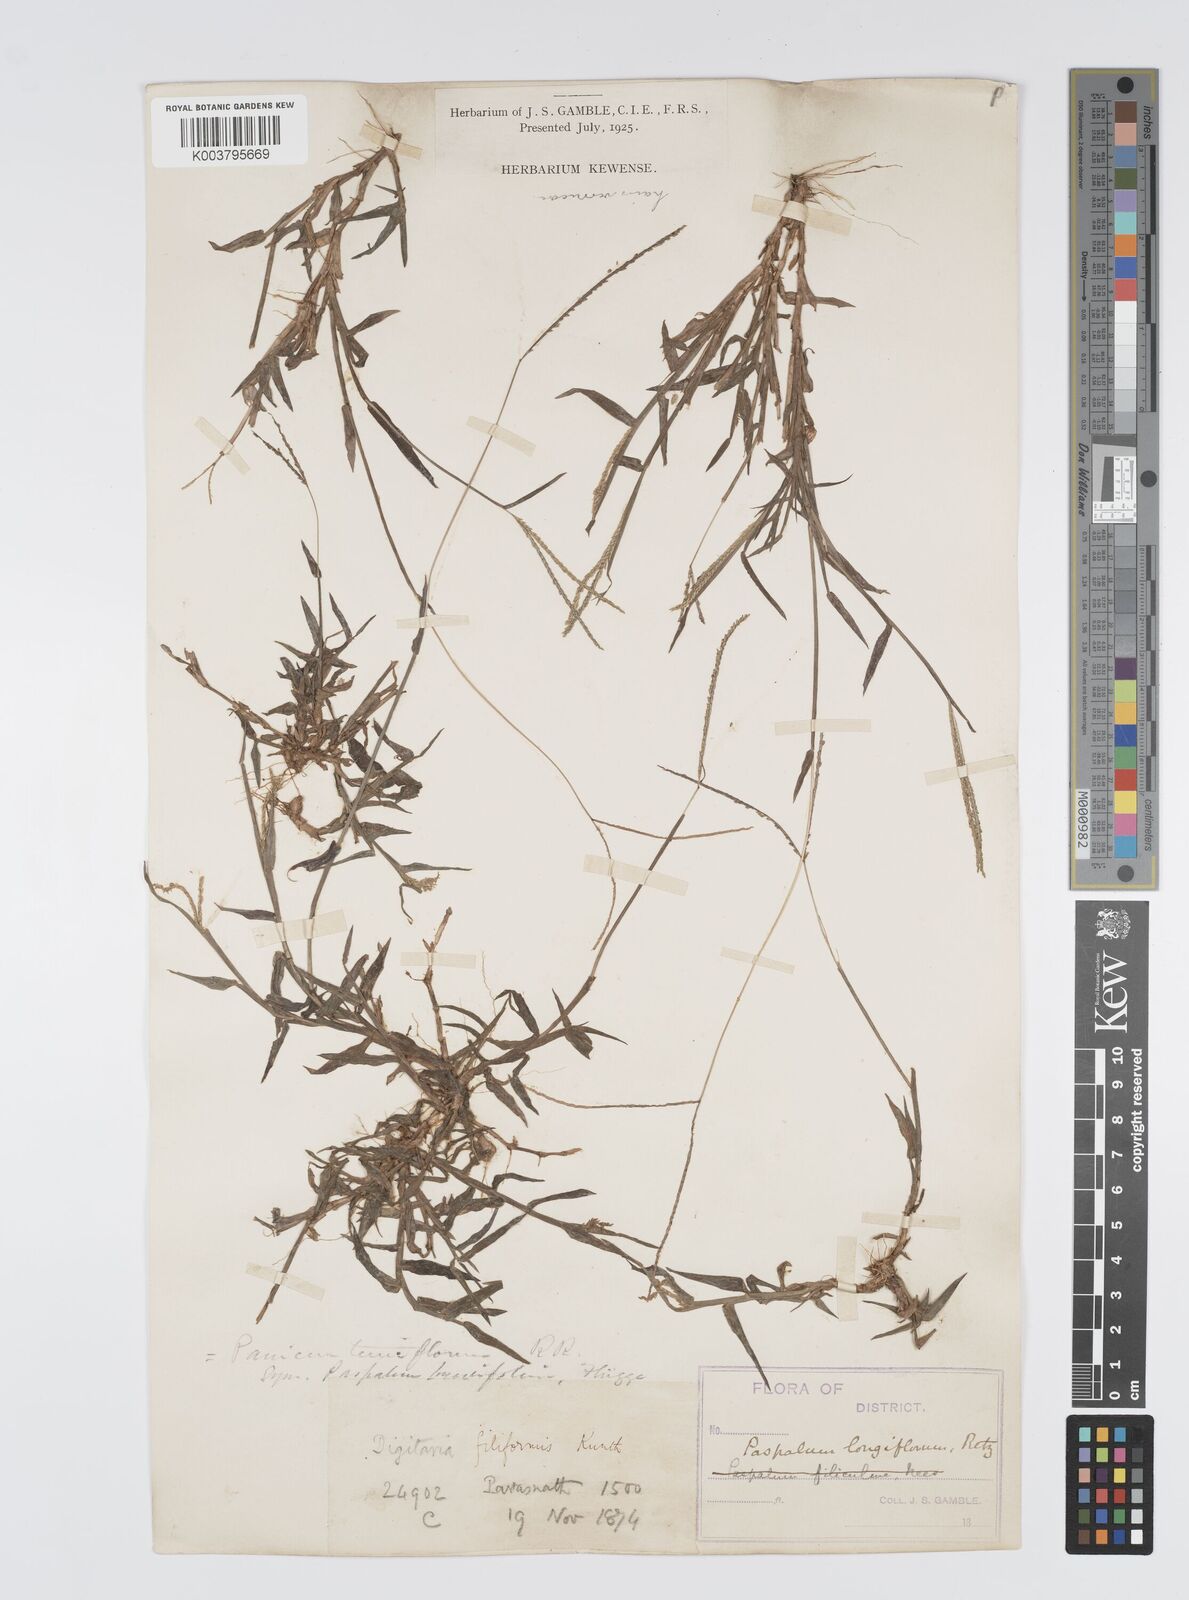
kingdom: Plantae
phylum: Tracheophyta
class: Liliopsida
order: Poales
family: Poaceae
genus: Digitaria
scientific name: Digitaria longiflora
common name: Wire crabgrass
